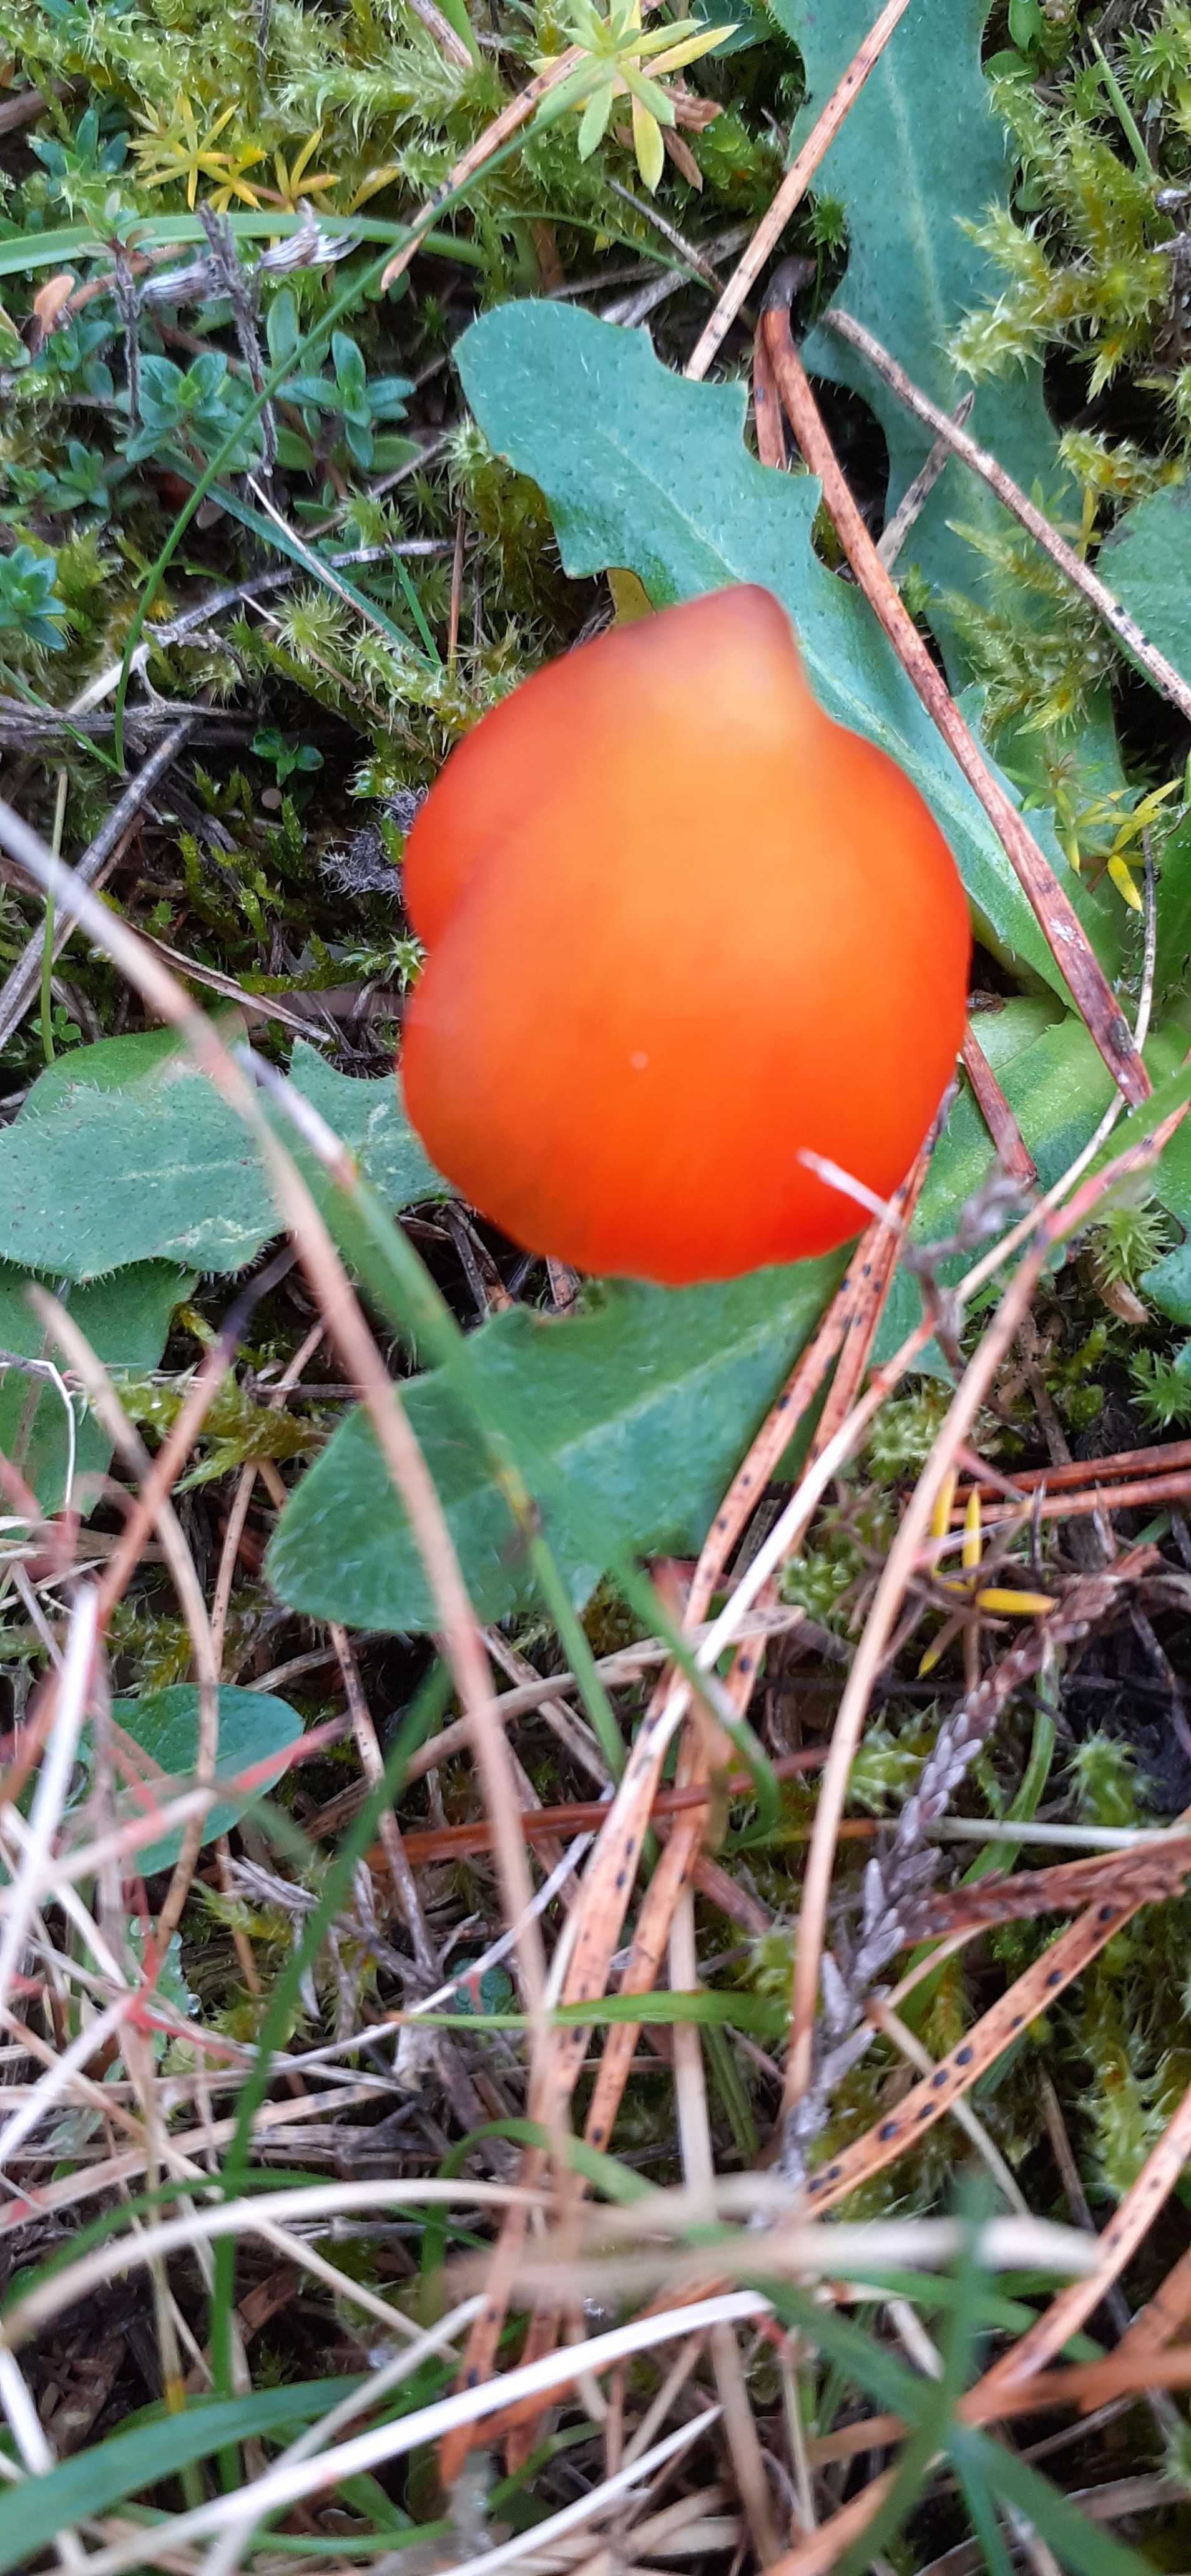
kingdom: Fungi
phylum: Basidiomycota
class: Agaricomycetes
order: Agaricales
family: Hygrophoraceae
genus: Hygrocybe
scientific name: Hygrocybe conica
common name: kegle-vokshat
